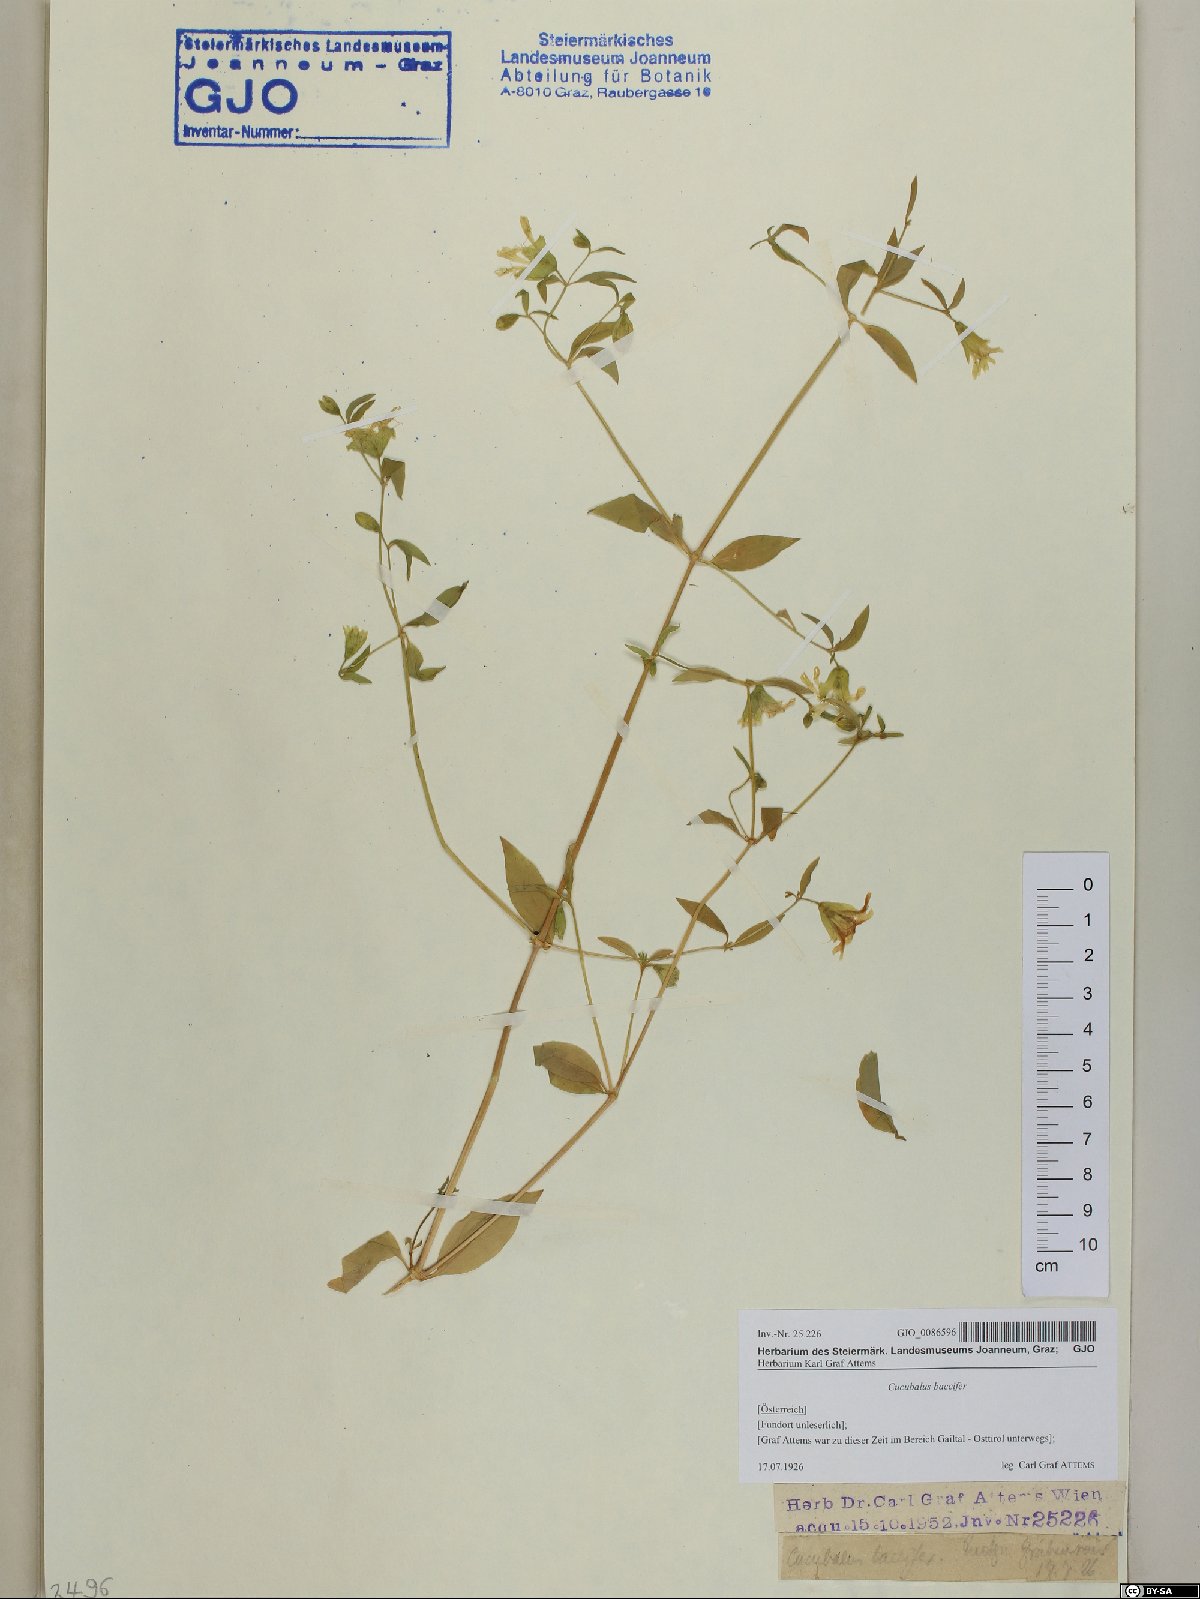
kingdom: Plantae
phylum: Tracheophyta
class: Magnoliopsida
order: Caryophyllales
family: Caryophyllaceae
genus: Silene
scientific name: Silene baccifera
